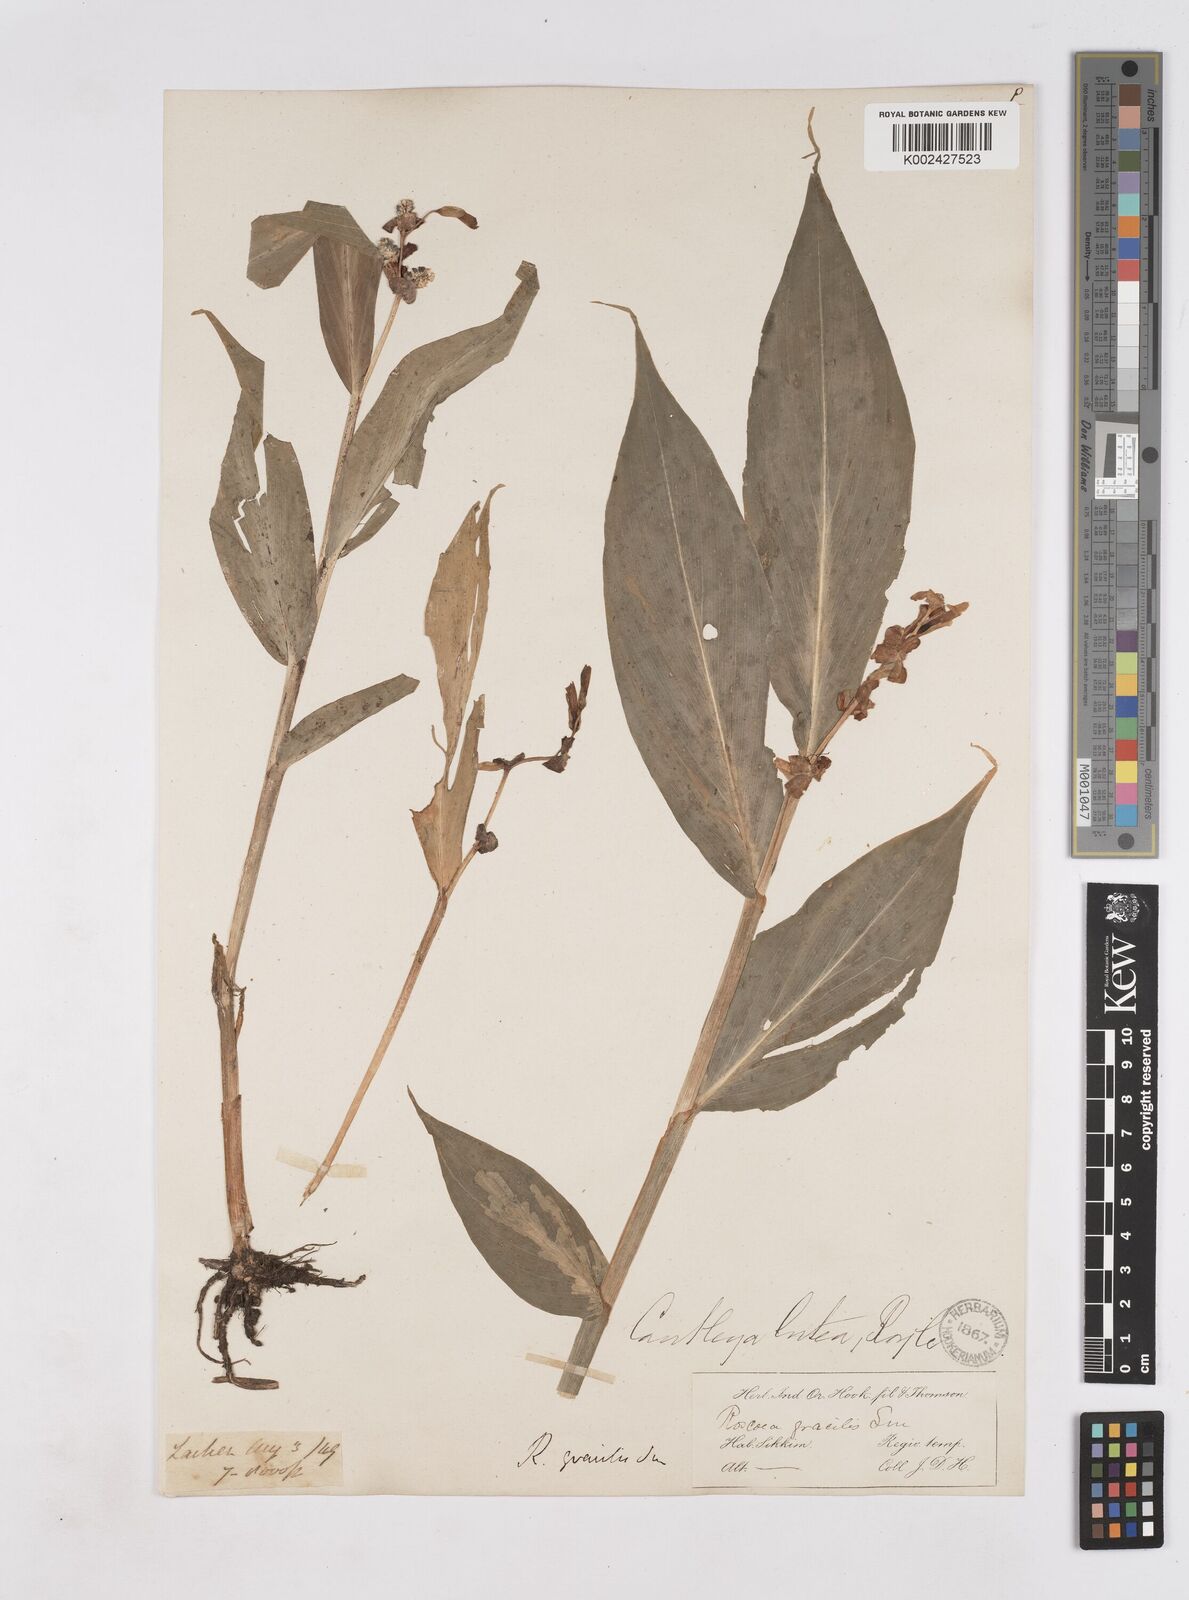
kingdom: Plantae
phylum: Tracheophyta
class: Liliopsida
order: Zingiberales
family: Zingiberaceae
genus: Cautleya
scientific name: Cautleya gracilis
